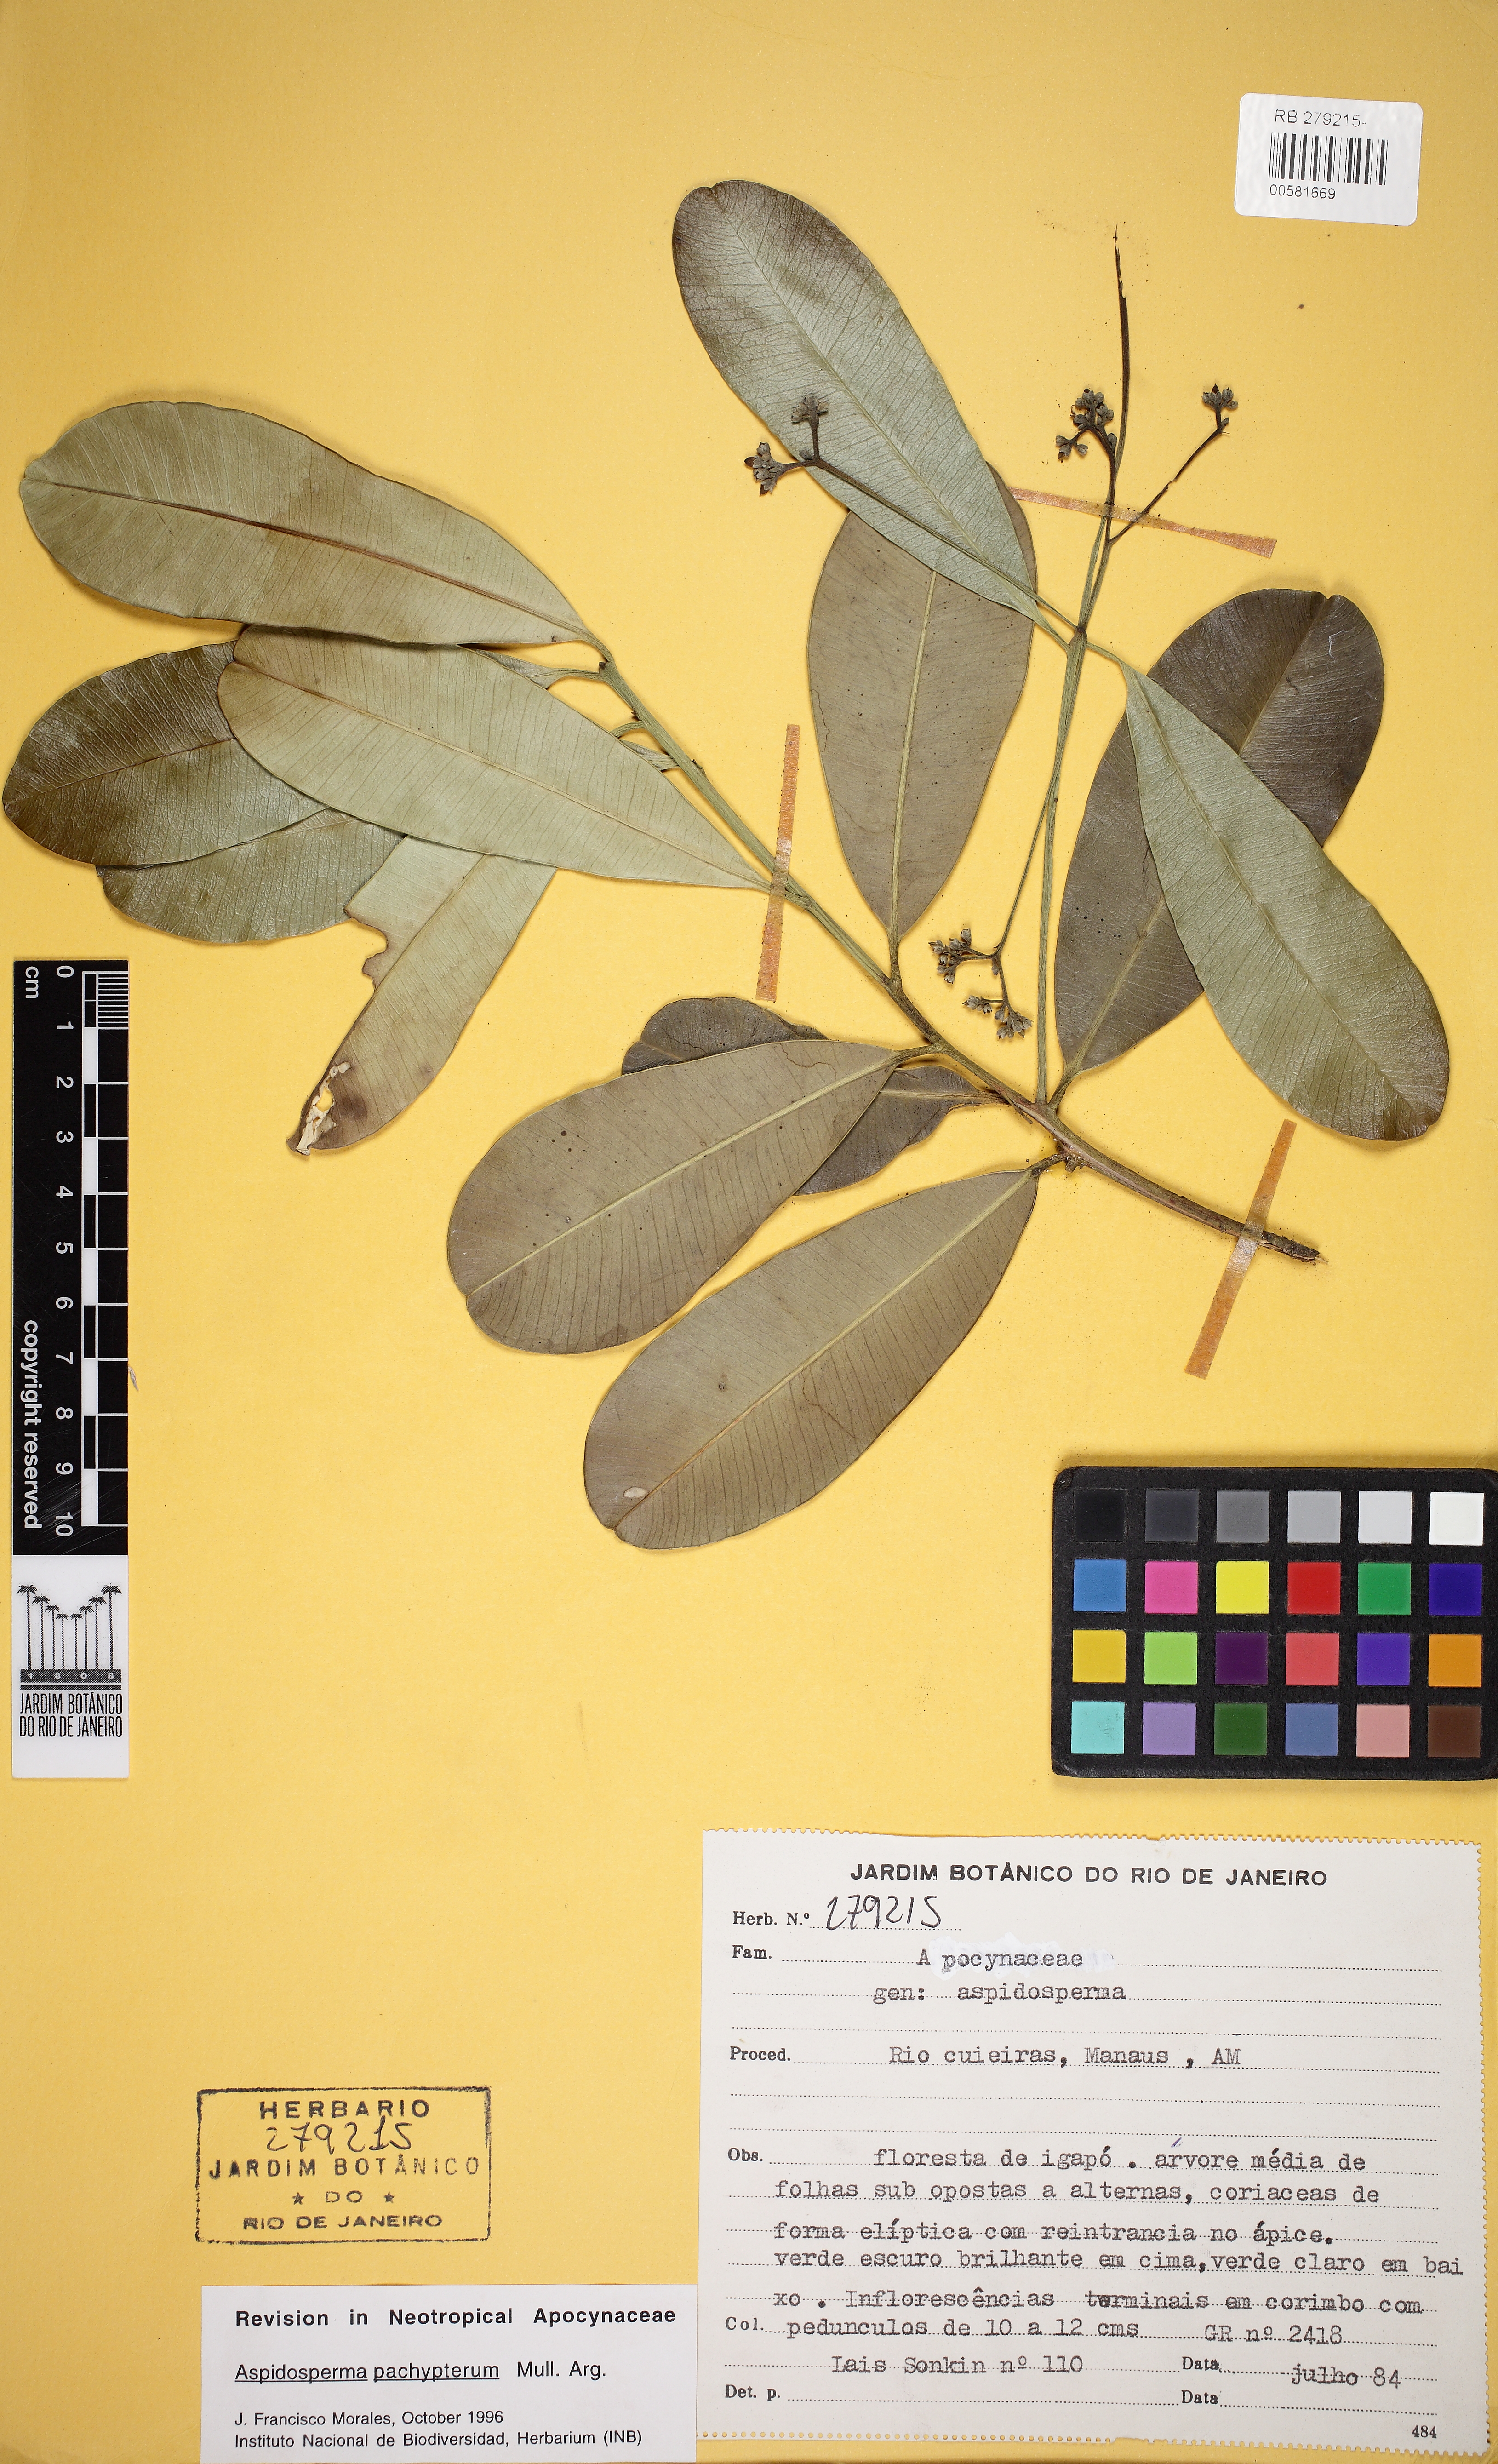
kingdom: Plantae
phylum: Tracheophyta
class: Magnoliopsida
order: Gentianales
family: Apocynaceae
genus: Aspidosperma
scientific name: Aspidosperma pachypterum
